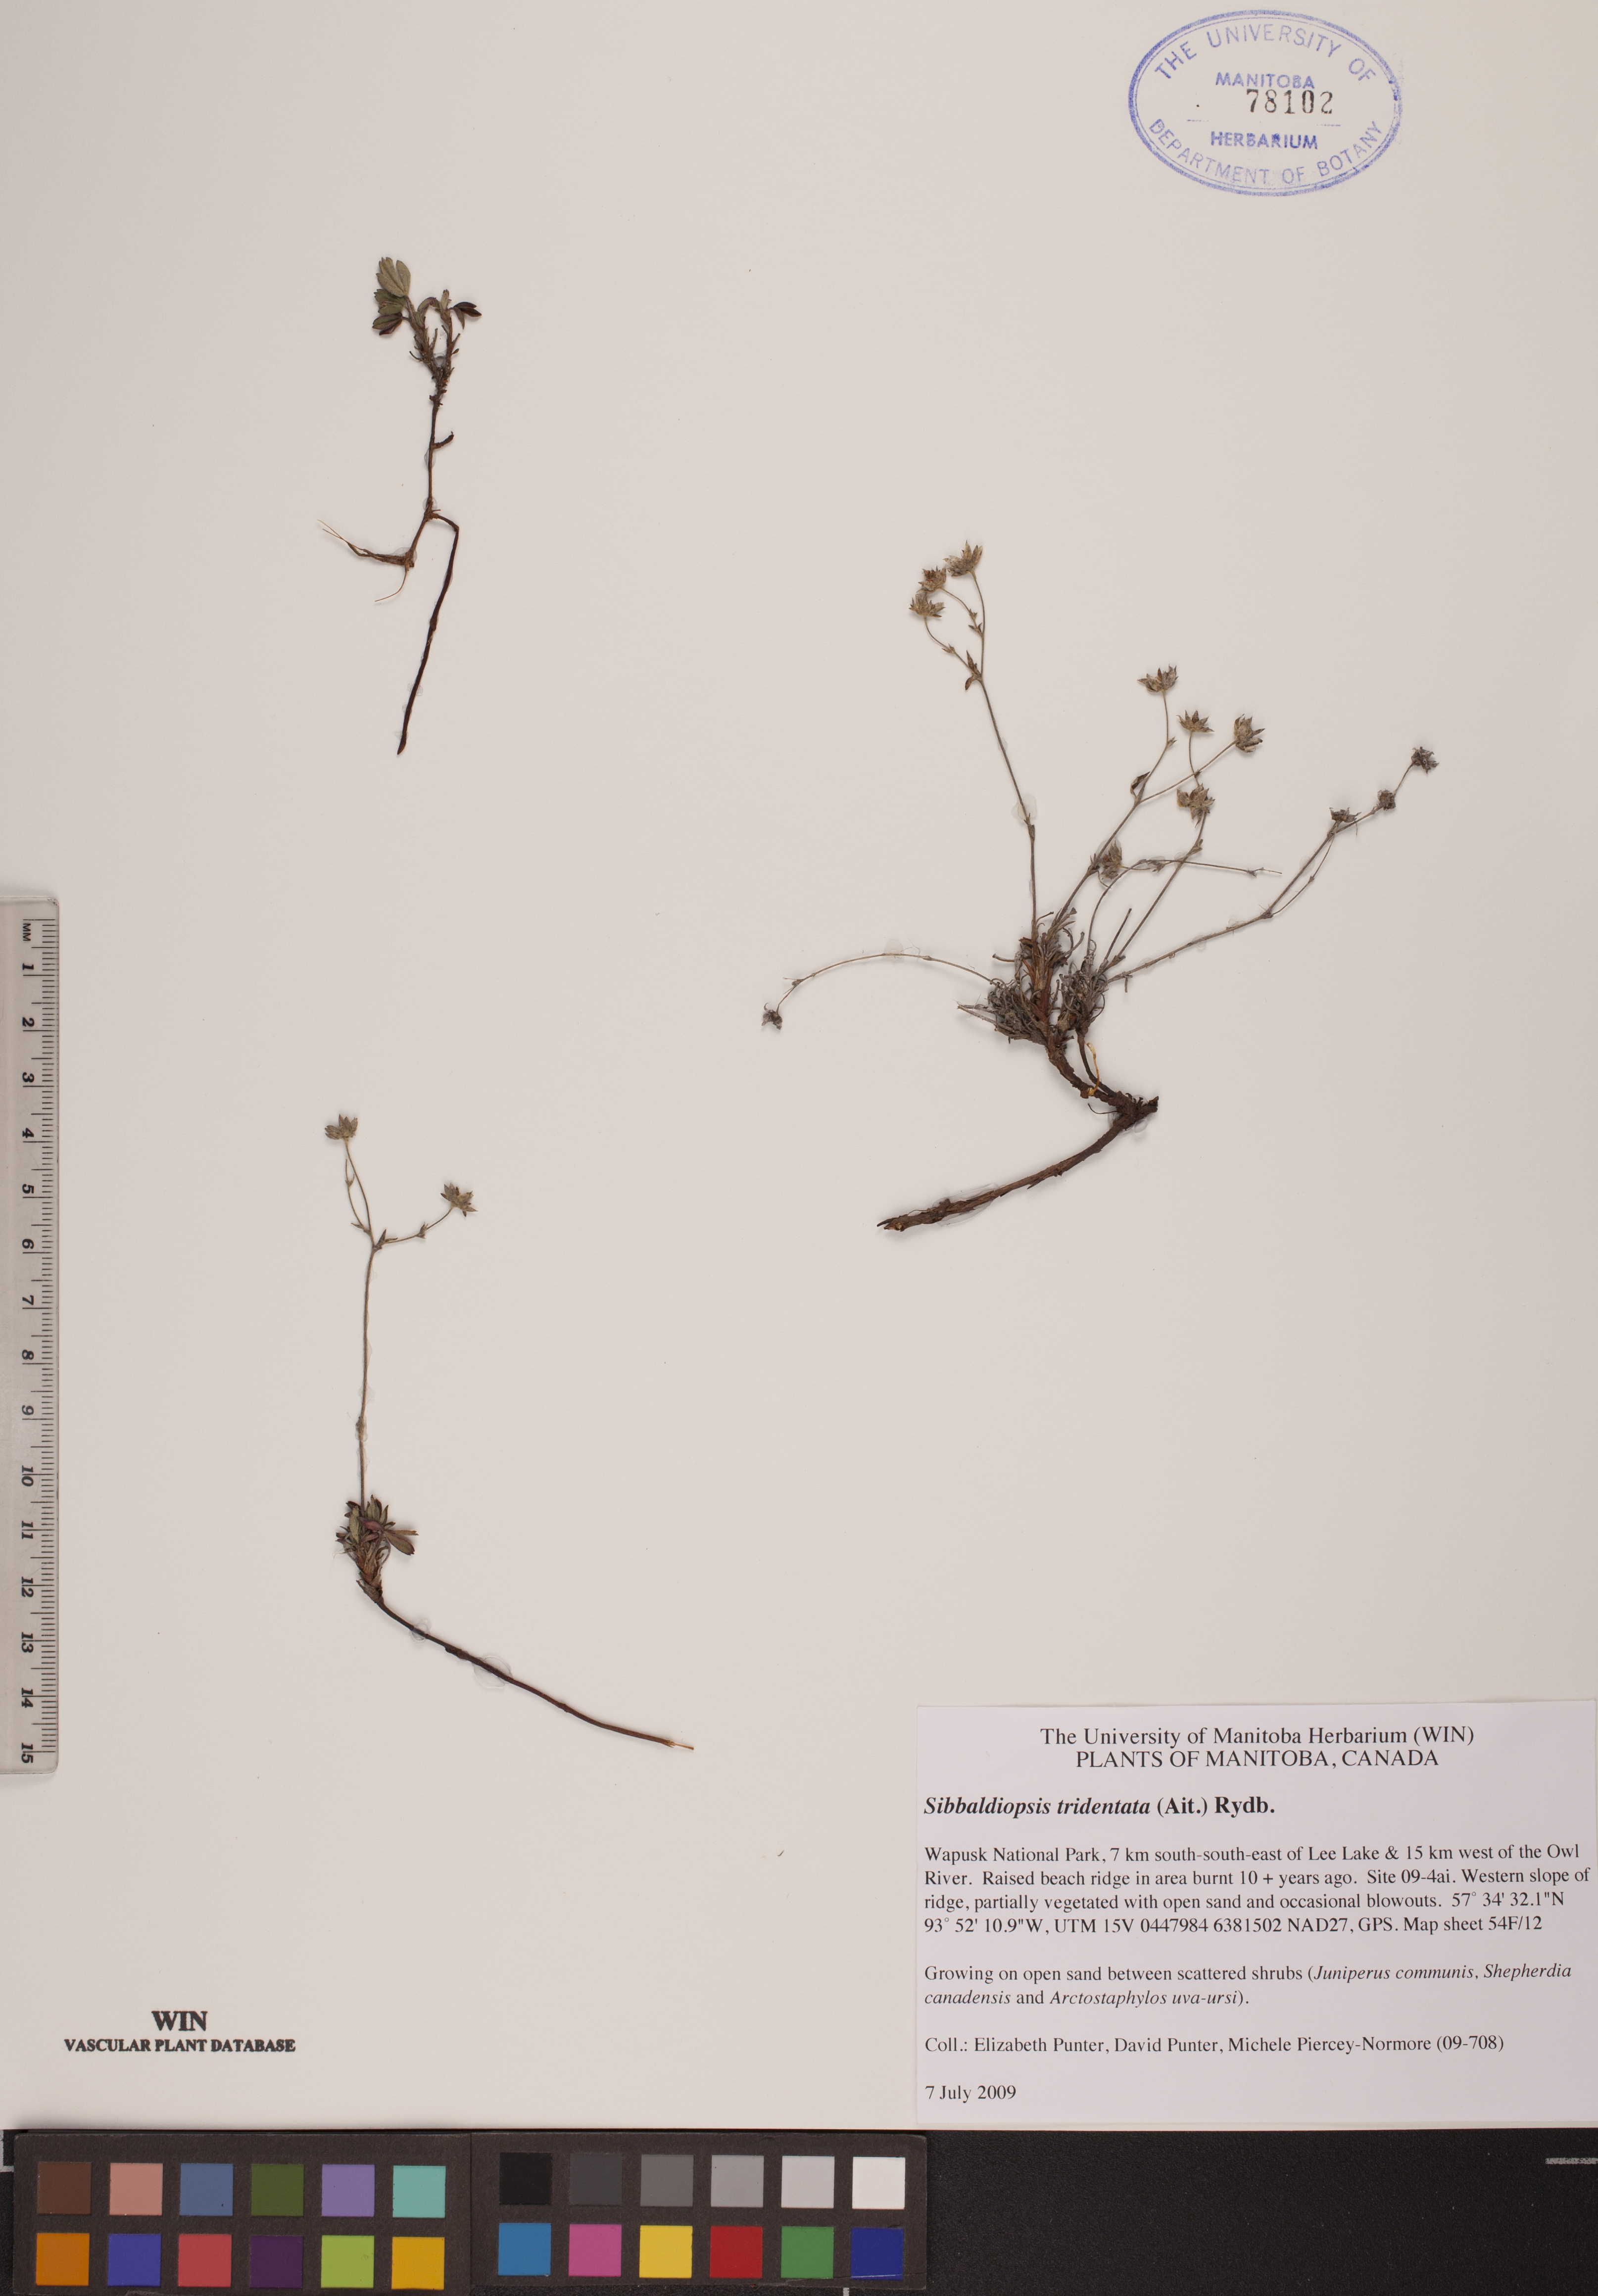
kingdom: Plantae
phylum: Tracheophyta
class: Magnoliopsida
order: Rosales
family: Rosaceae
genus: Sibbaldia
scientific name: Sibbaldia tridentata
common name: Three-toothed cinquefoil
